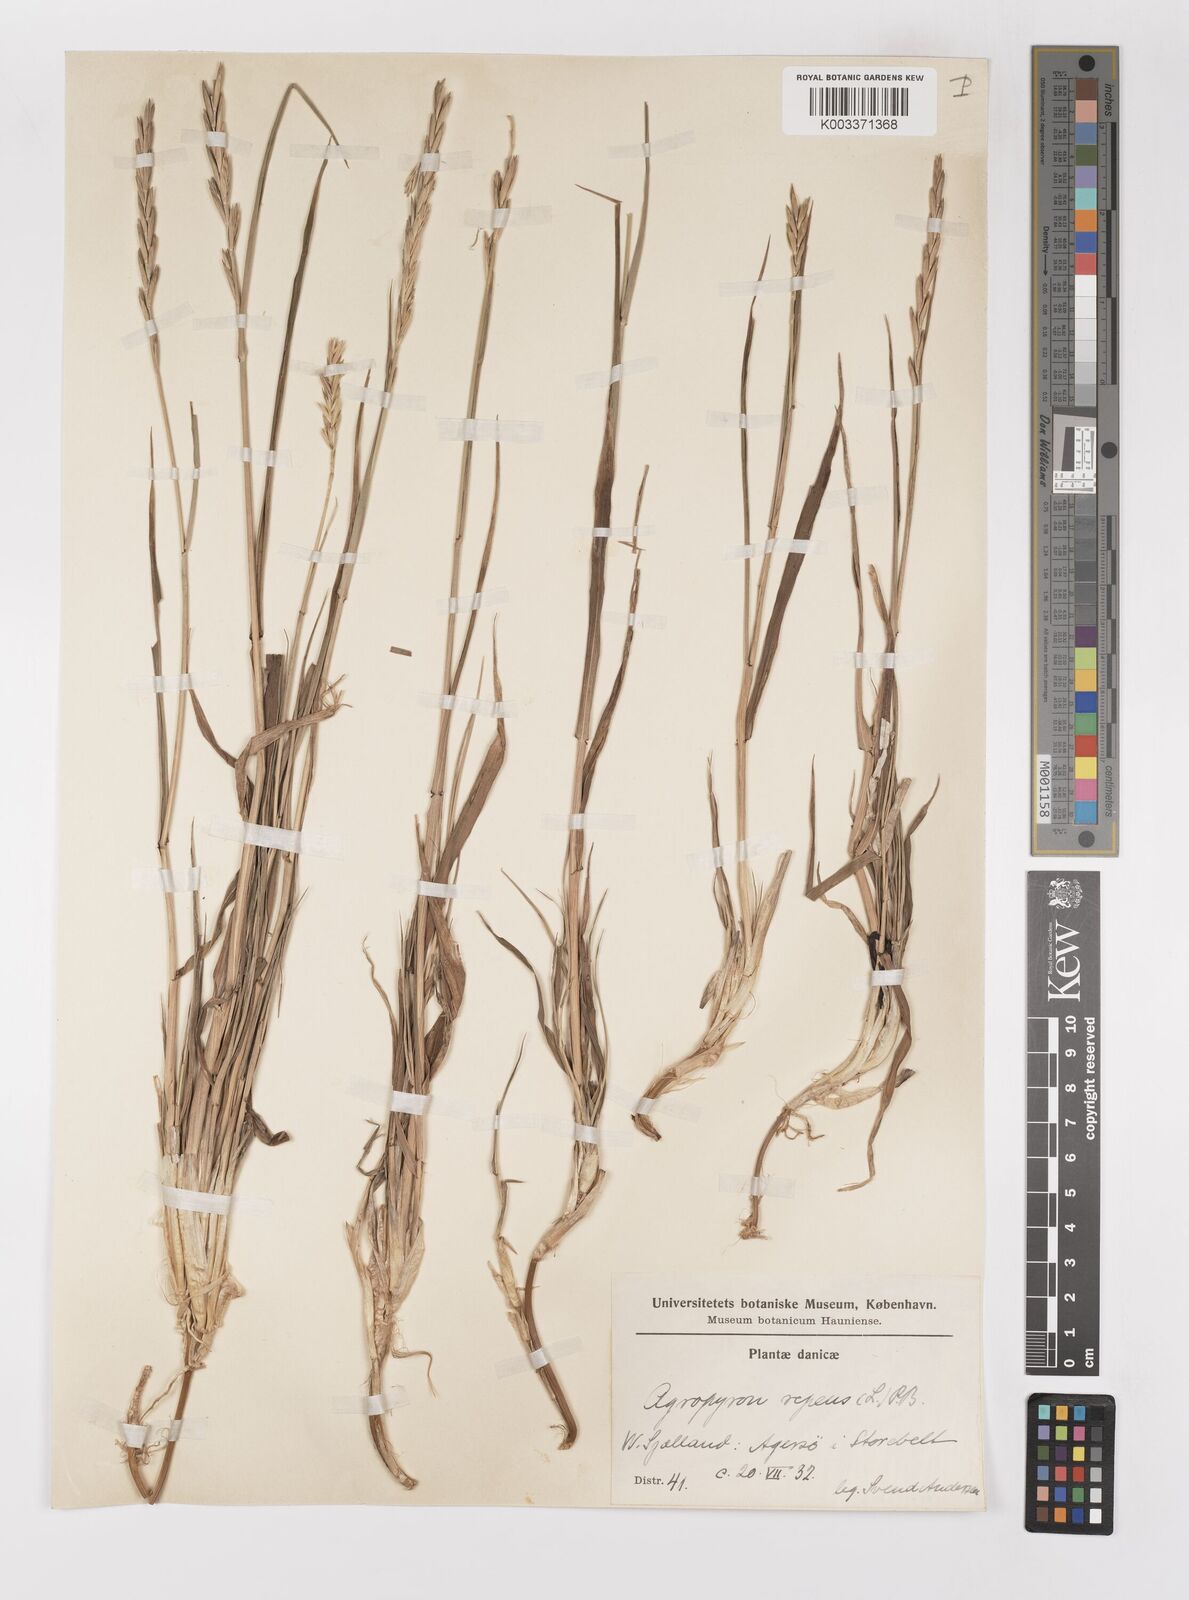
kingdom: Plantae
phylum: Tracheophyta
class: Liliopsida
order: Poales
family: Poaceae
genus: Elymus
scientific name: Elymus repens
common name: Quackgrass
